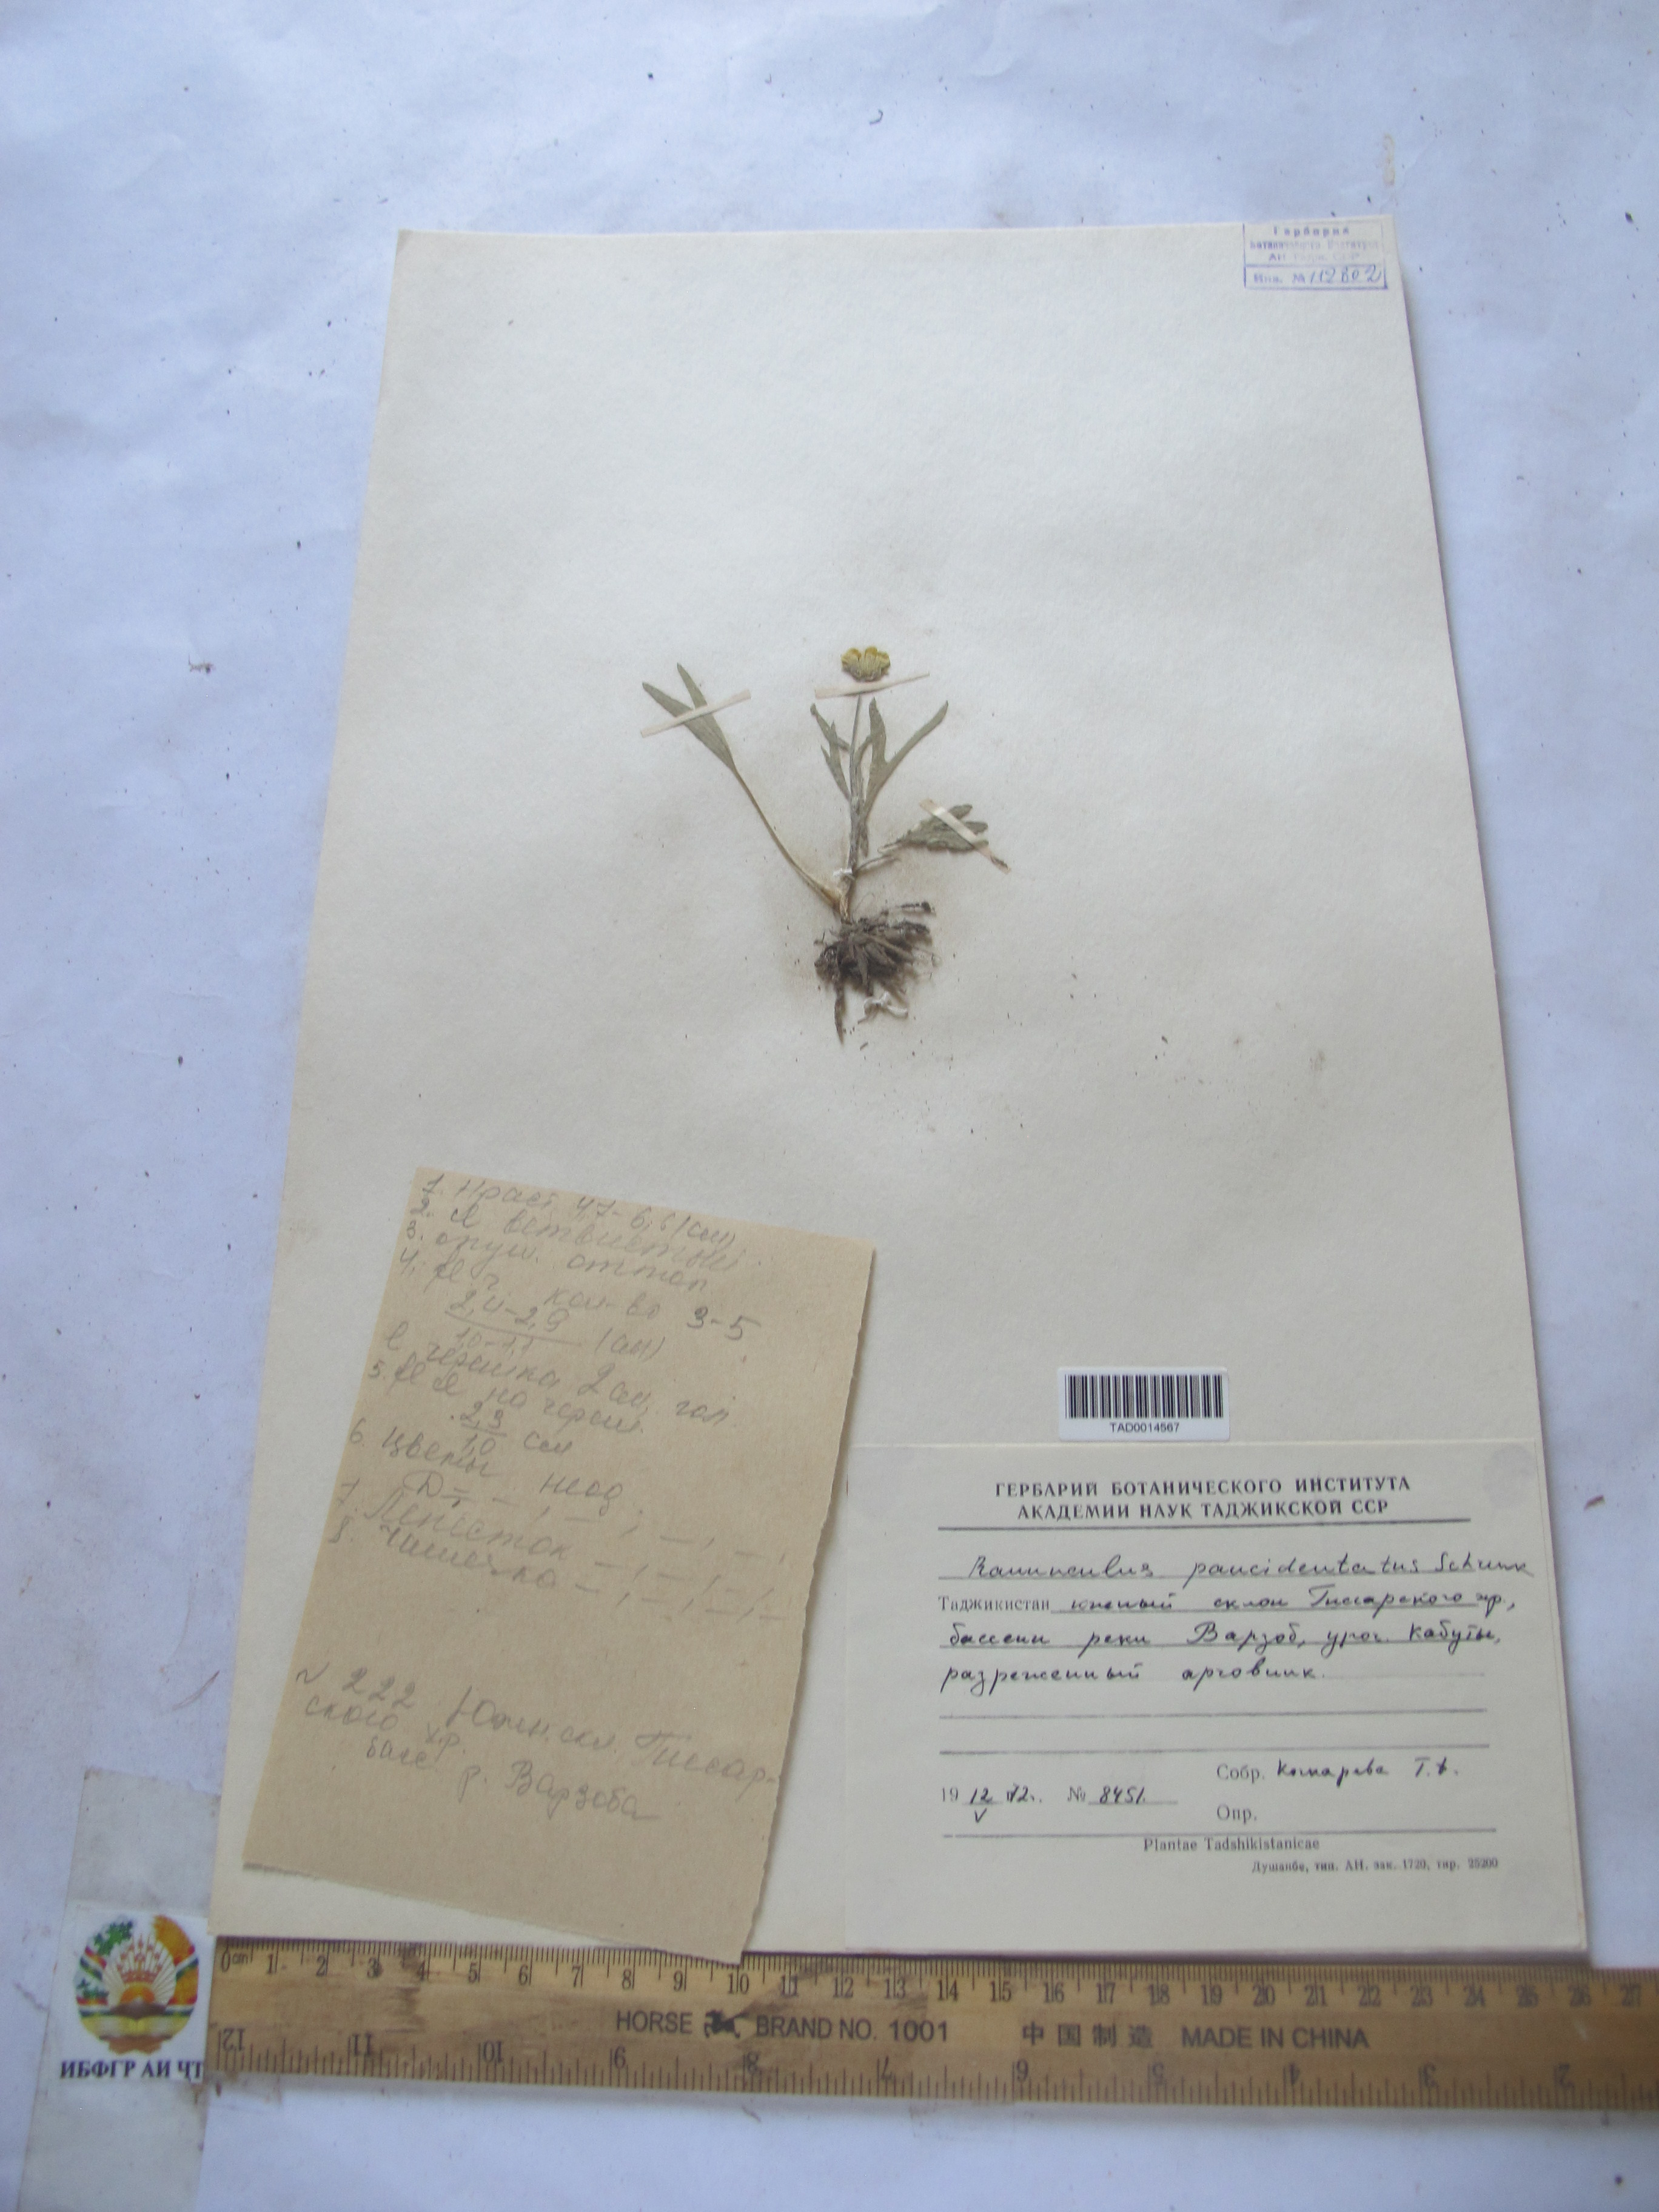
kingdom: Plantae
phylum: Tracheophyta
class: Magnoliopsida
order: Ranunculales
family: Ranunculaceae
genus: Ranunculus
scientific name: Ranunculus paucidentatus
